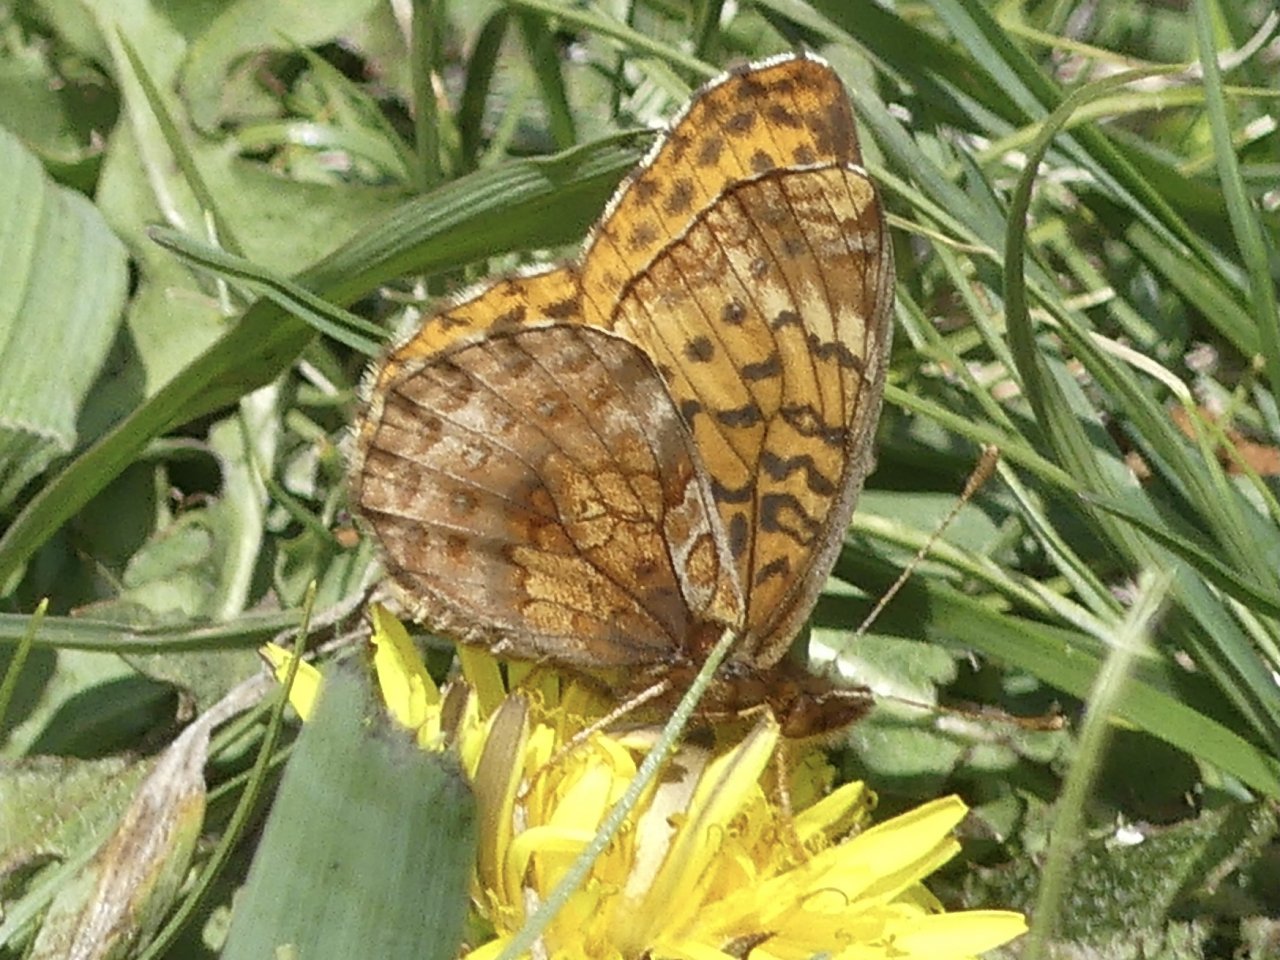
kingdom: Animalia
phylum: Arthropoda
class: Insecta
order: Lepidoptera
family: Nymphalidae
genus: Clossiana
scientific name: Clossiana toddi
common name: Meadow Fritillary
